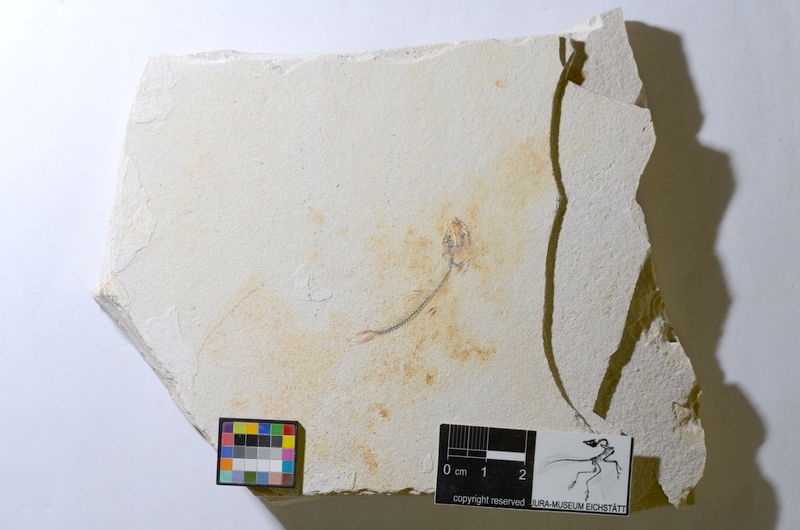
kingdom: Animalia
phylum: Chordata
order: Salmoniformes
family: Orthogonikleithridae
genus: Orthogonikleithrus
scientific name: Orthogonikleithrus hoelli
